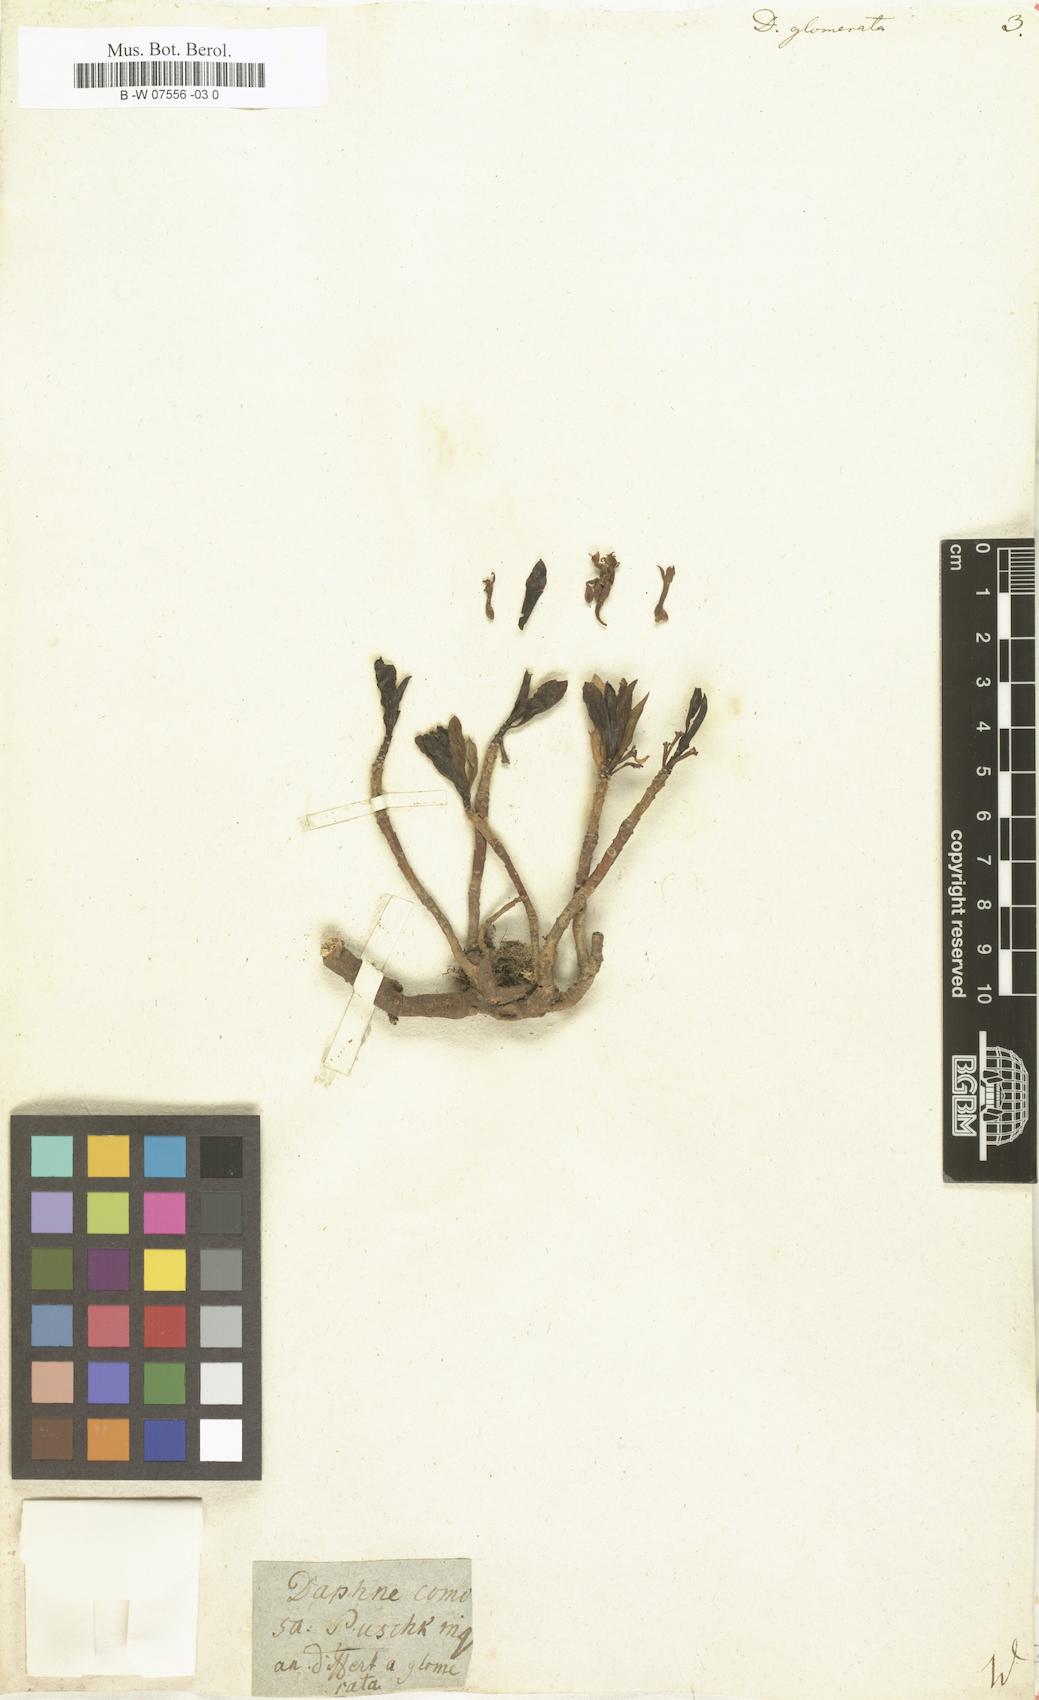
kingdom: Plantae
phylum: Tracheophyta
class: Magnoliopsida
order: Malvales
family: Thymelaeaceae
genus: Daphne
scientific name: Daphne glomerata
